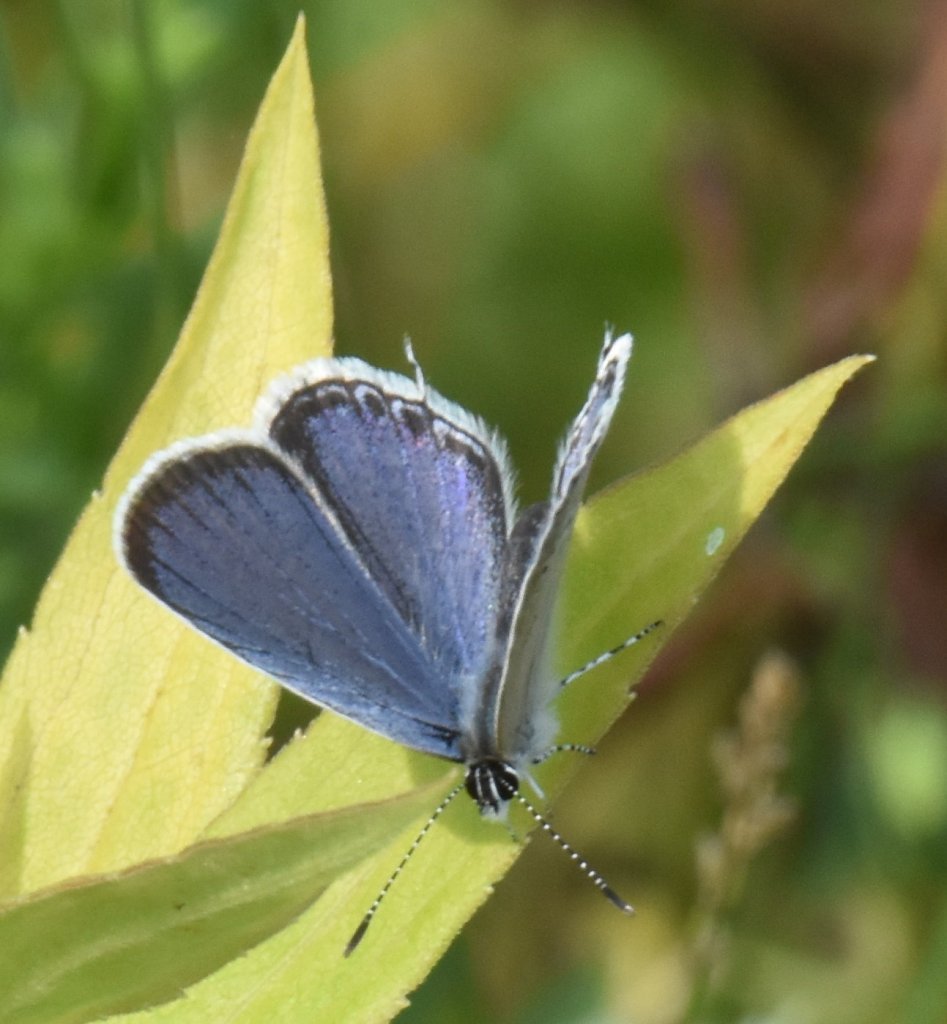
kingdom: Animalia
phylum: Arthropoda
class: Insecta
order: Lepidoptera
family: Lycaenidae
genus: Elkalyce
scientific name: Elkalyce comyntas
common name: Eastern Tailed-Blue
